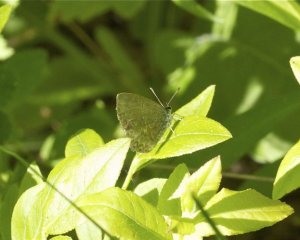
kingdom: Animalia
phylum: Arthropoda
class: Insecta
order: Lepidoptera
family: Lycaenidae
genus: Celastrina
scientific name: Celastrina lucia
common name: Northern Spring Azure
